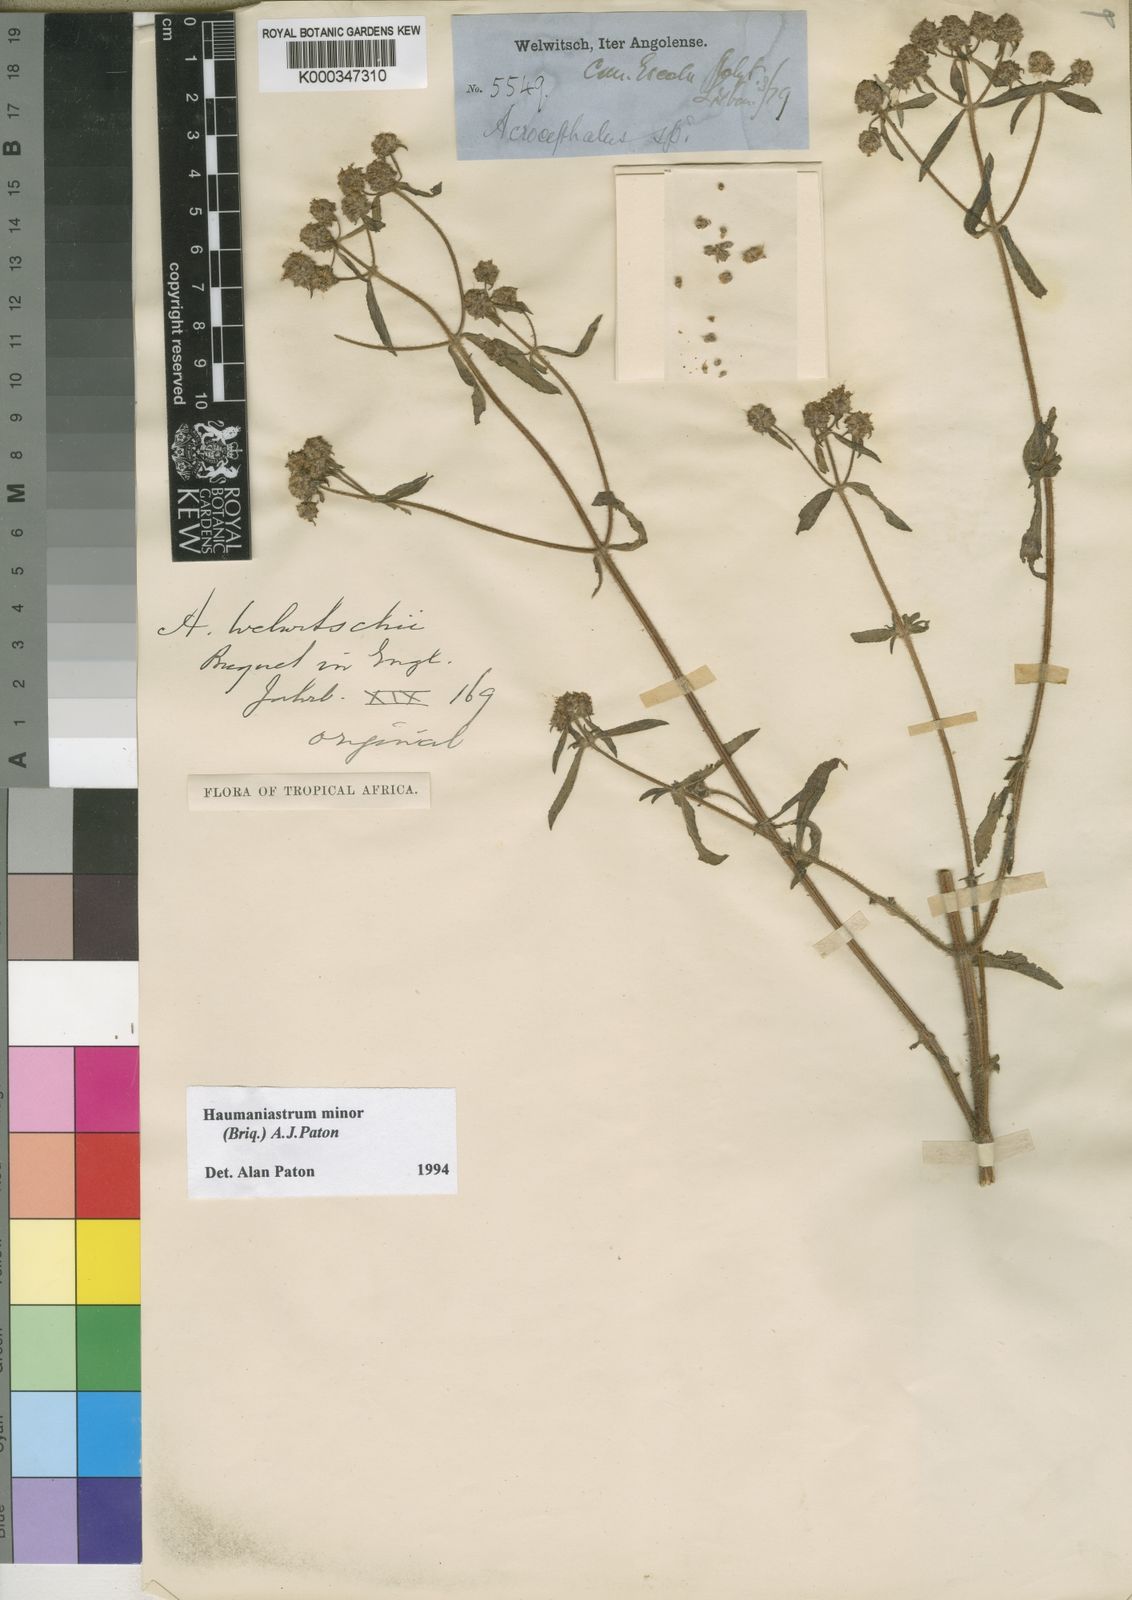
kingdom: Plantae
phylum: Tracheophyta
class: Magnoliopsida
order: Lamiales
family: Lamiaceae
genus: Haumaniastrum
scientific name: Haumaniastrum minor
